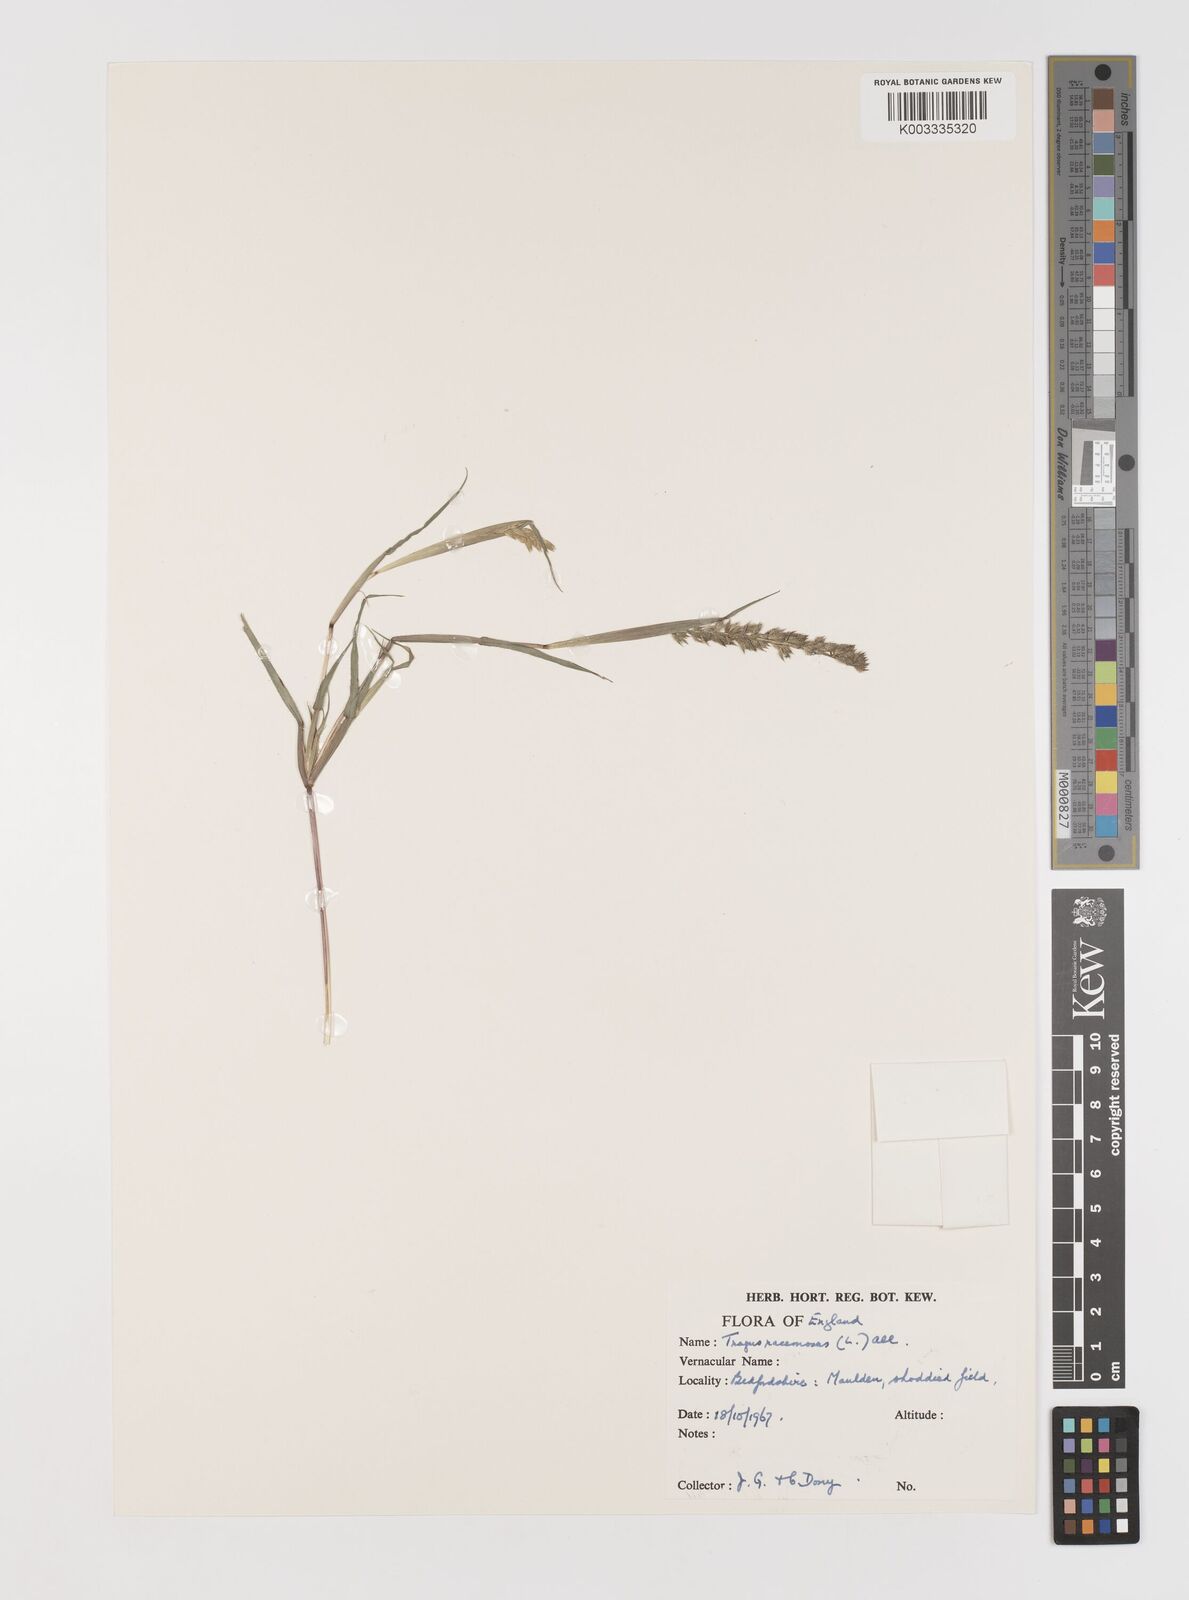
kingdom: Plantae
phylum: Tracheophyta
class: Liliopsida
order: Poales
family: Poaceae
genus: Tragus
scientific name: Tragus racemosus
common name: European bur-grass
